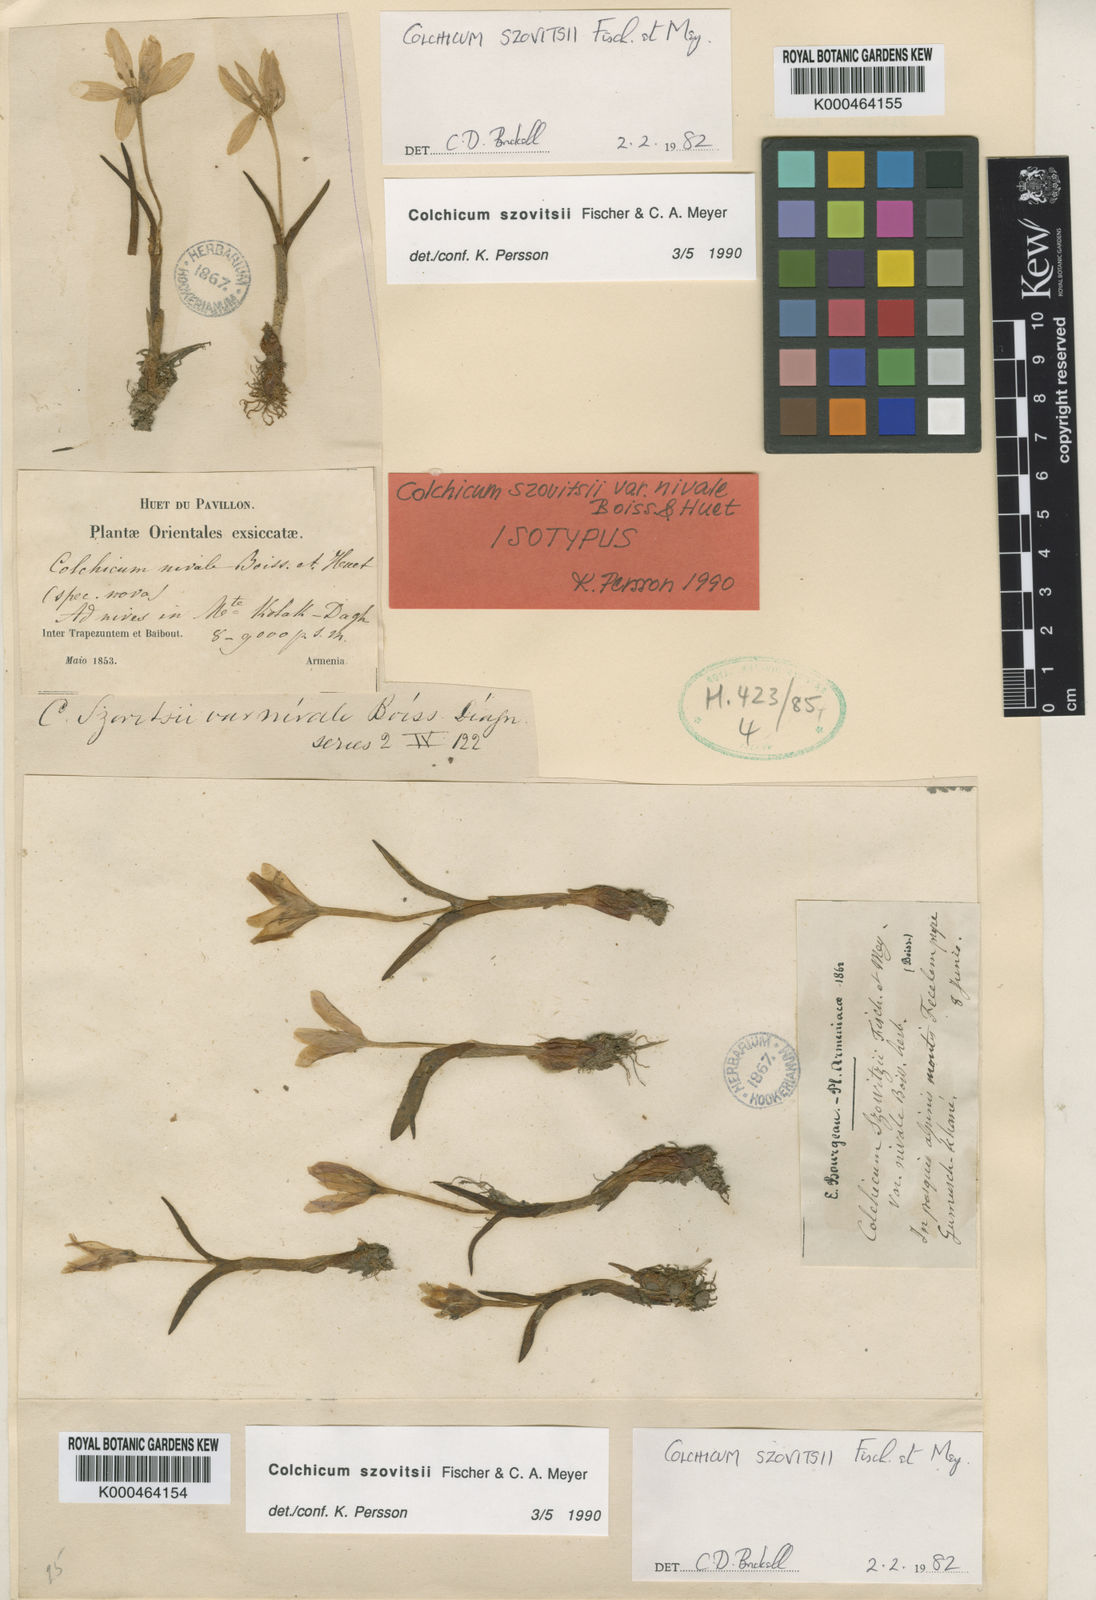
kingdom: Plantae
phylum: Tracheophyta
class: Liliopsida
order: Liliales
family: Colchicaceae
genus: Colchicum
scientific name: Colchicum szovitsii
